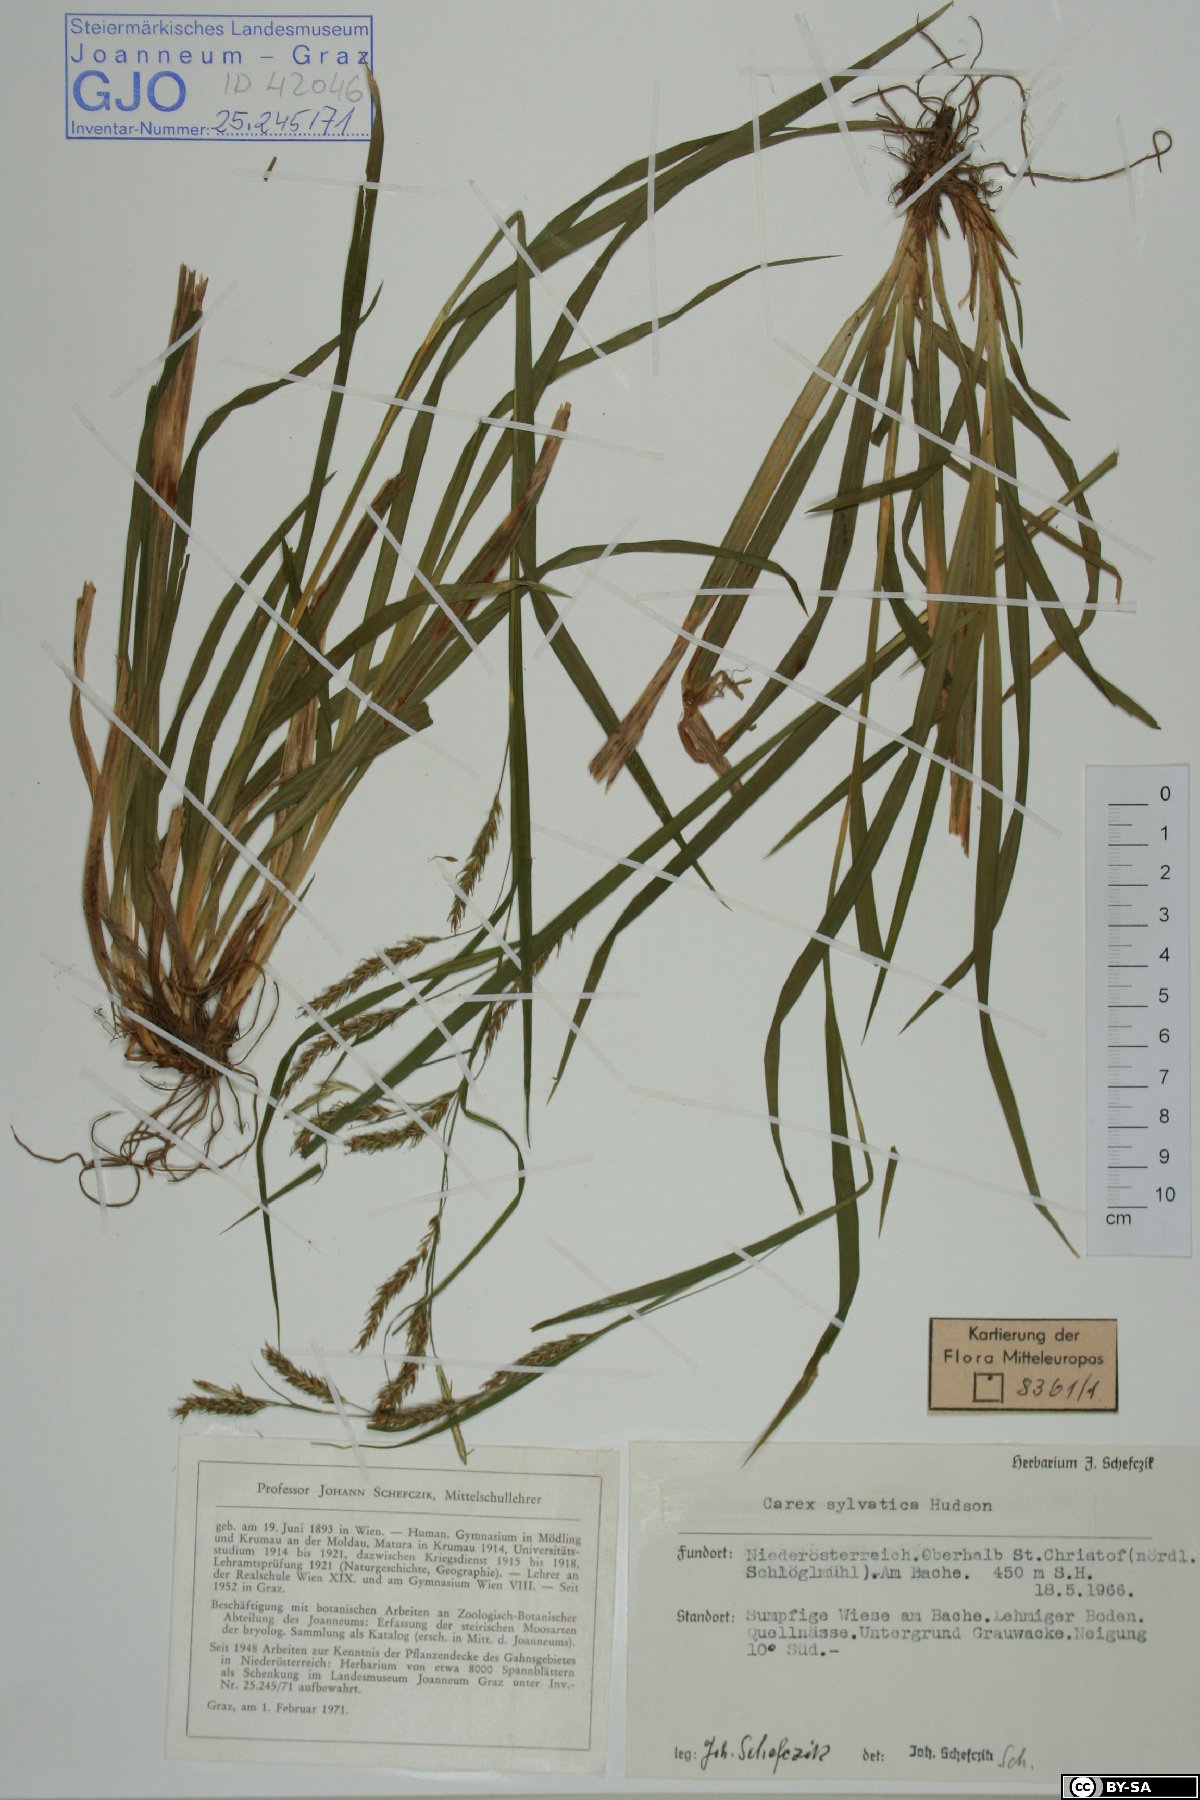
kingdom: Plantae
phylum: Tracheophyta
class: Liliopsida
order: Poales
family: Cyperaceae
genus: Carex
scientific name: Carex sylvatica
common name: Wood-sedge
